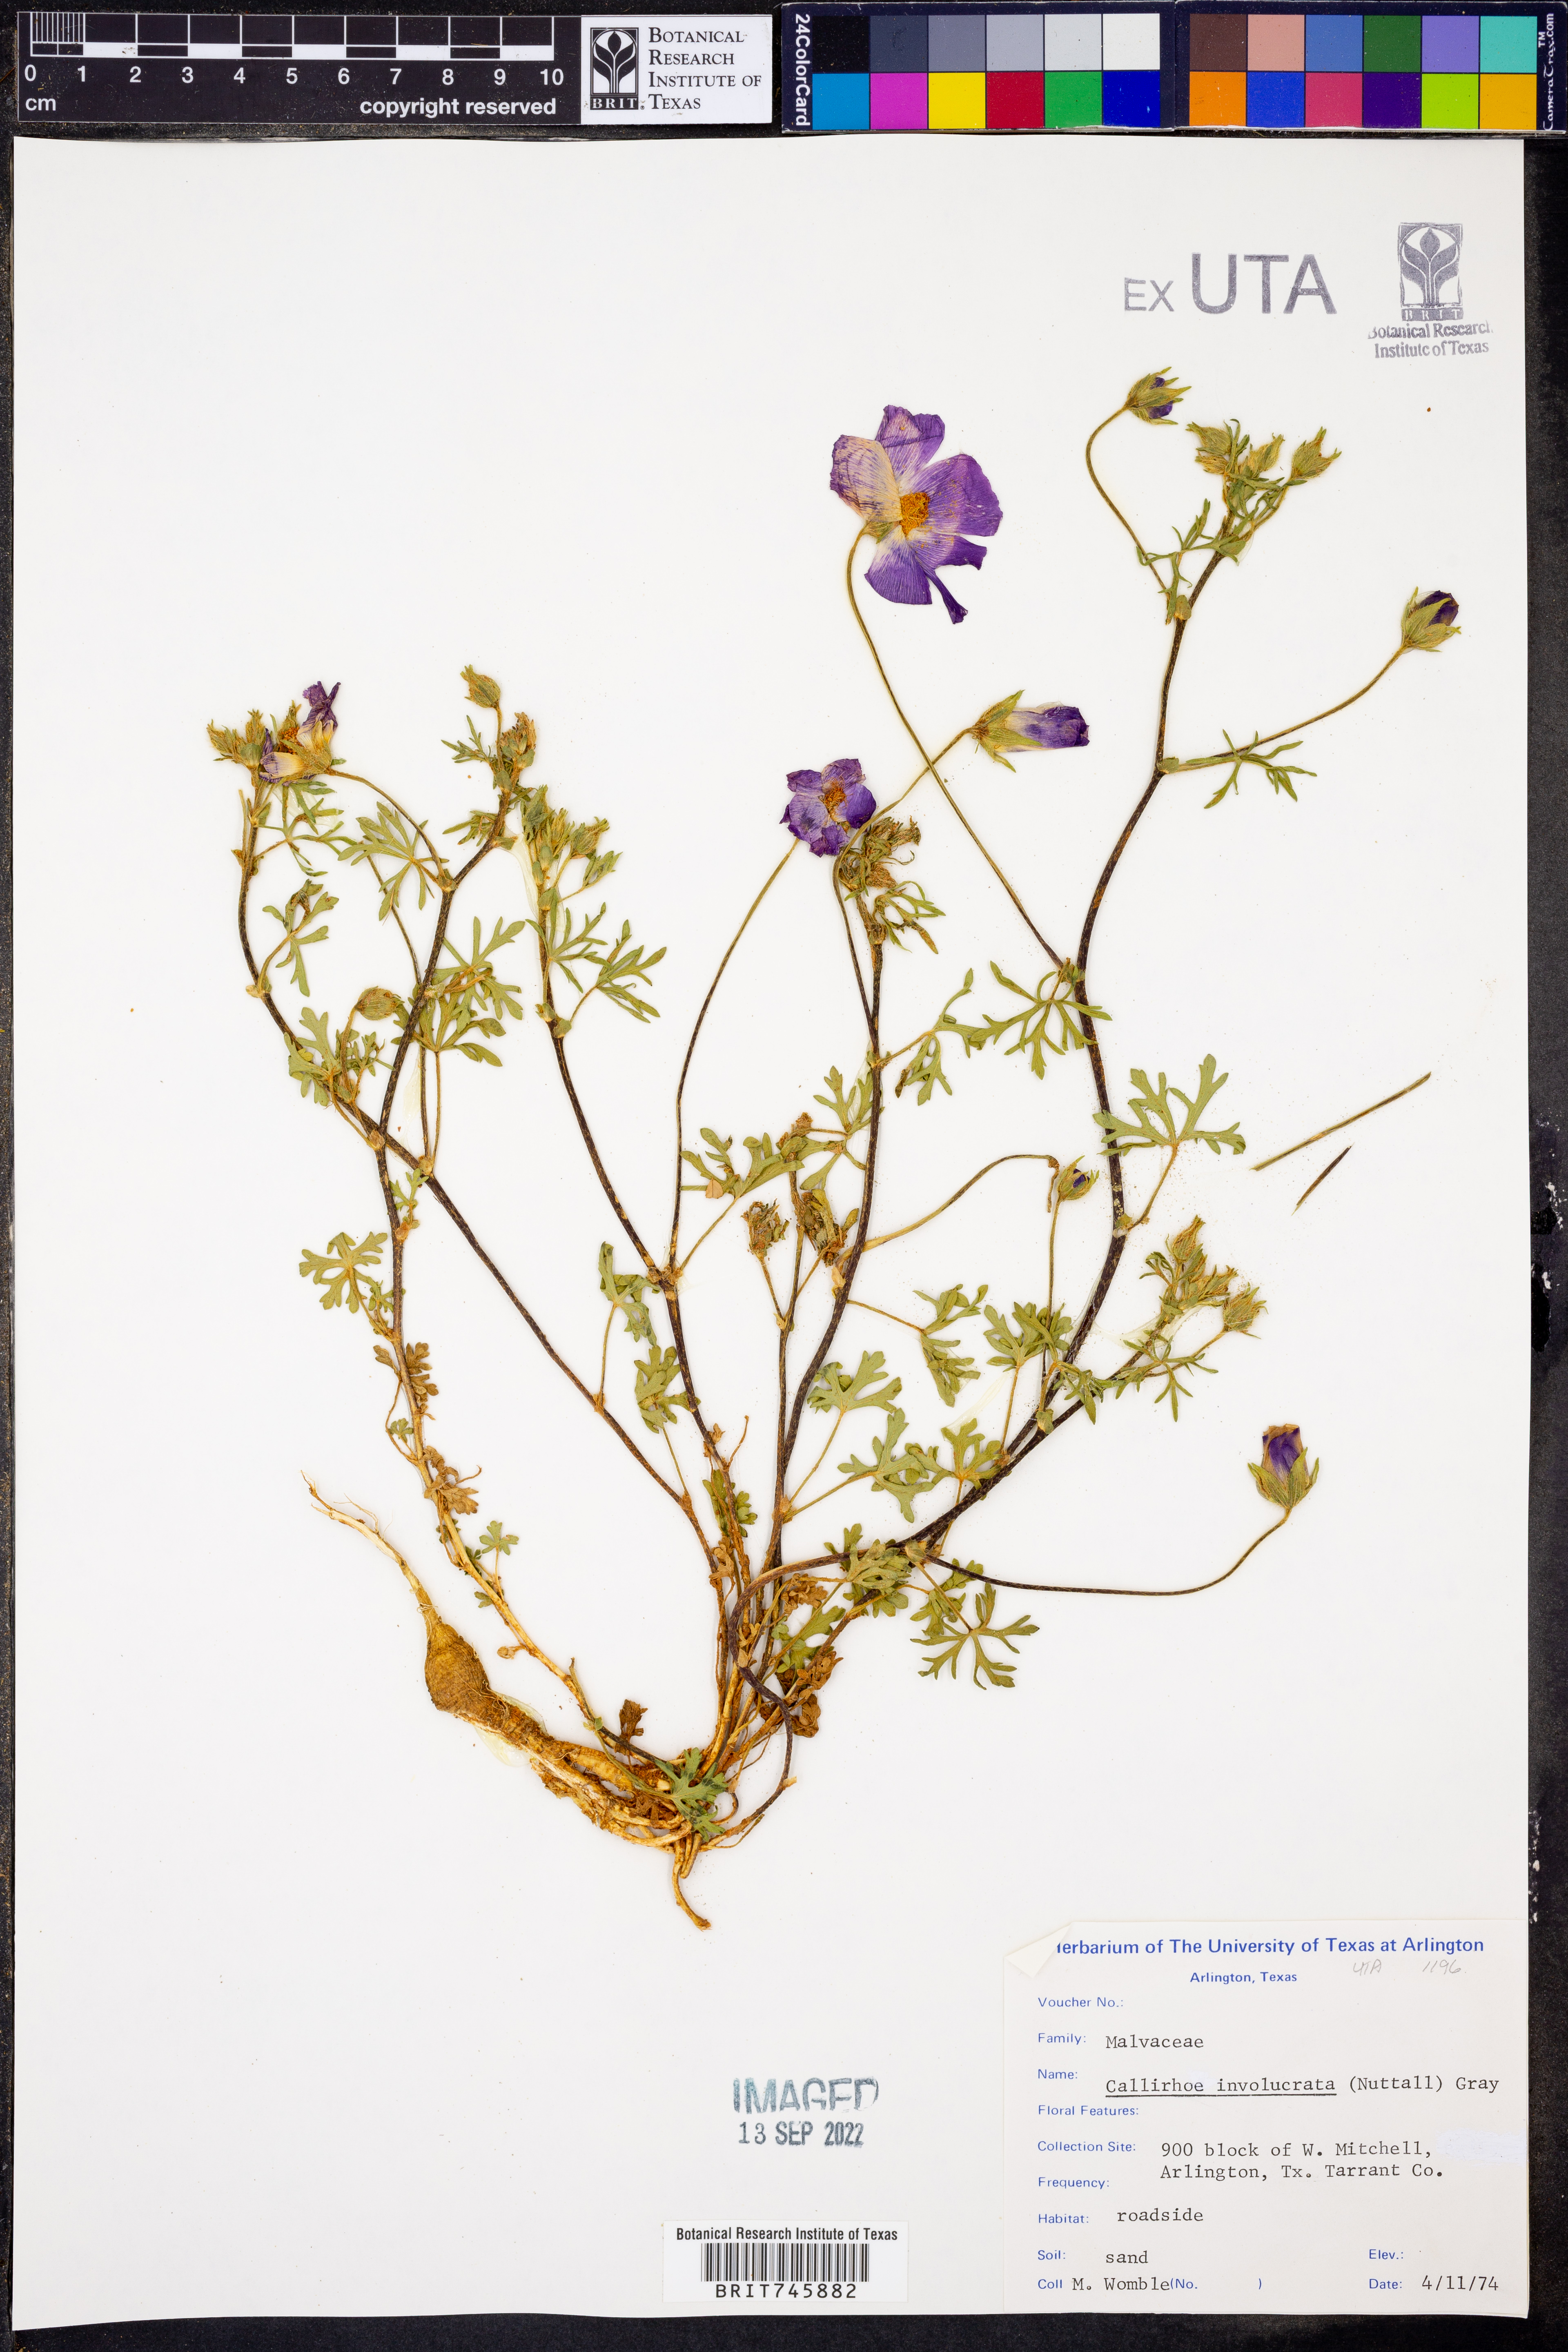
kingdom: Plantae
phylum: Tracheophyta
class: Magnoliopsida
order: Malvales
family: Malvaceae
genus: Callirhoe
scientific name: Callirhoe involucrata
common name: Purple poppy-mallow
